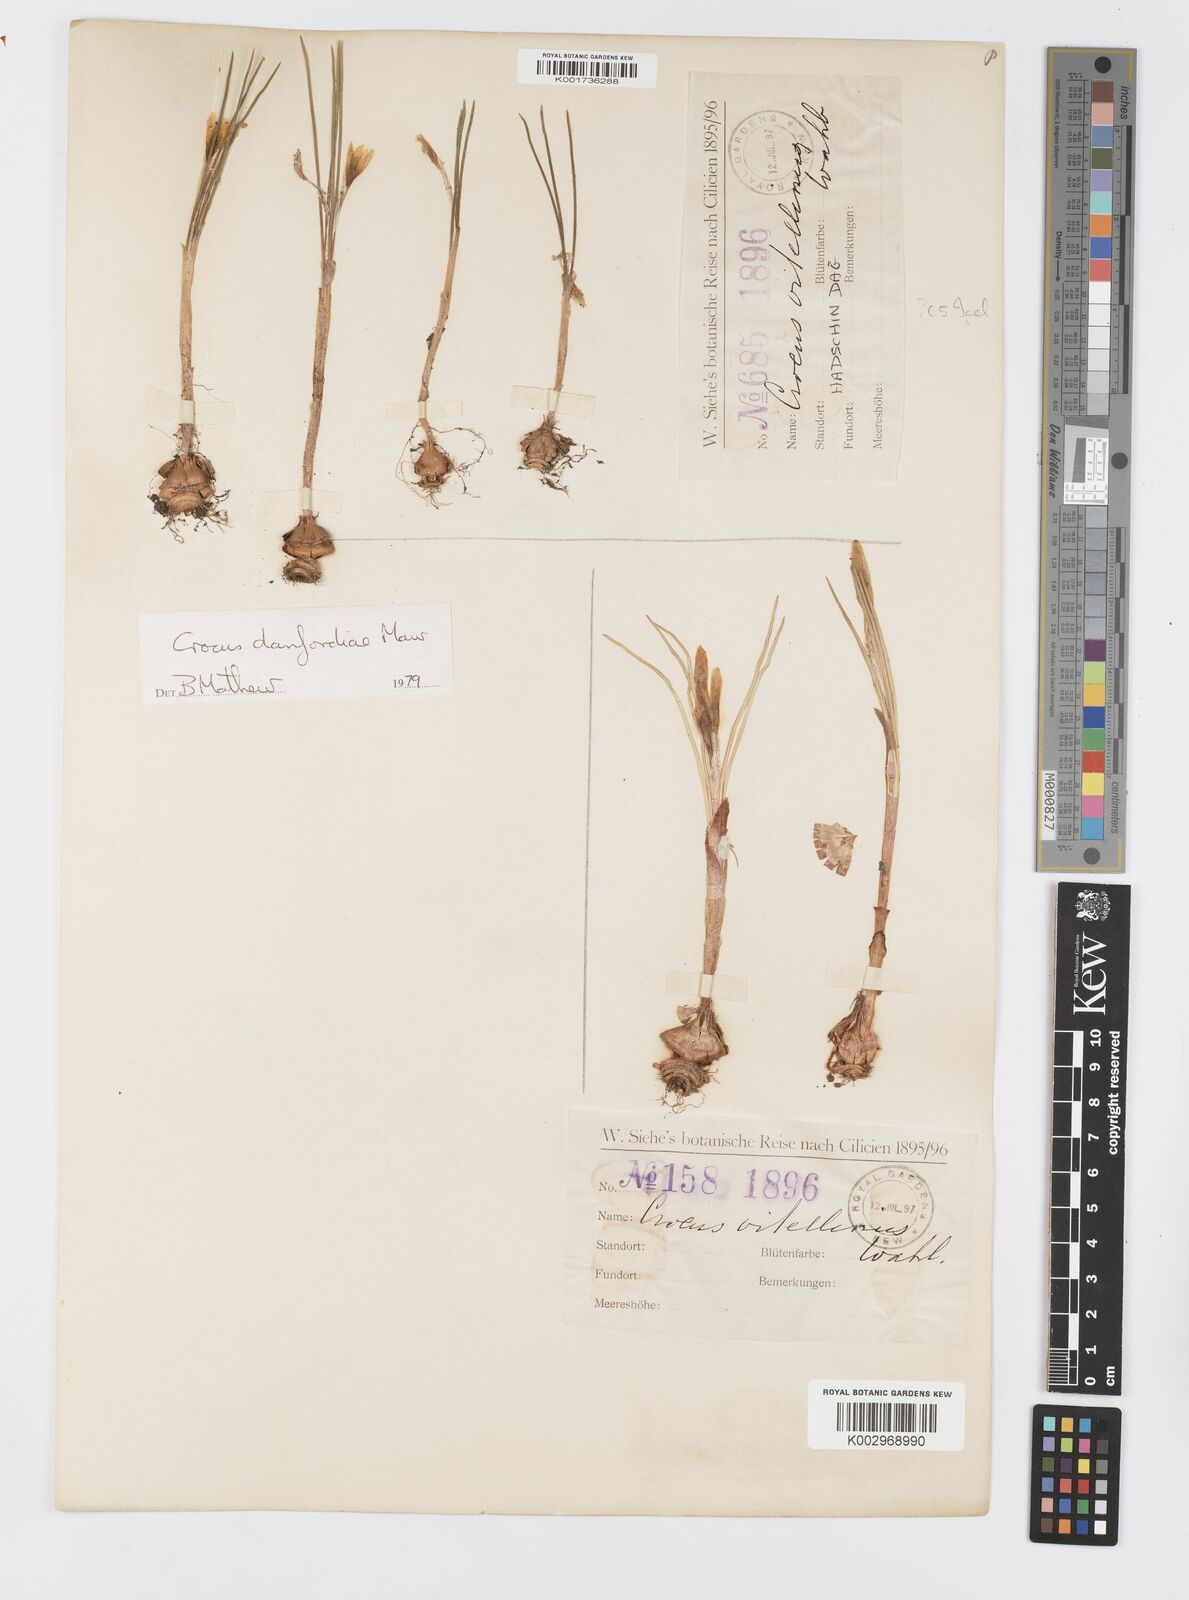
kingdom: Plantae
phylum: Tracheophyta
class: Liliopsida
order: Asparagales
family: Iridaceae
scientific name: Iridaceae
